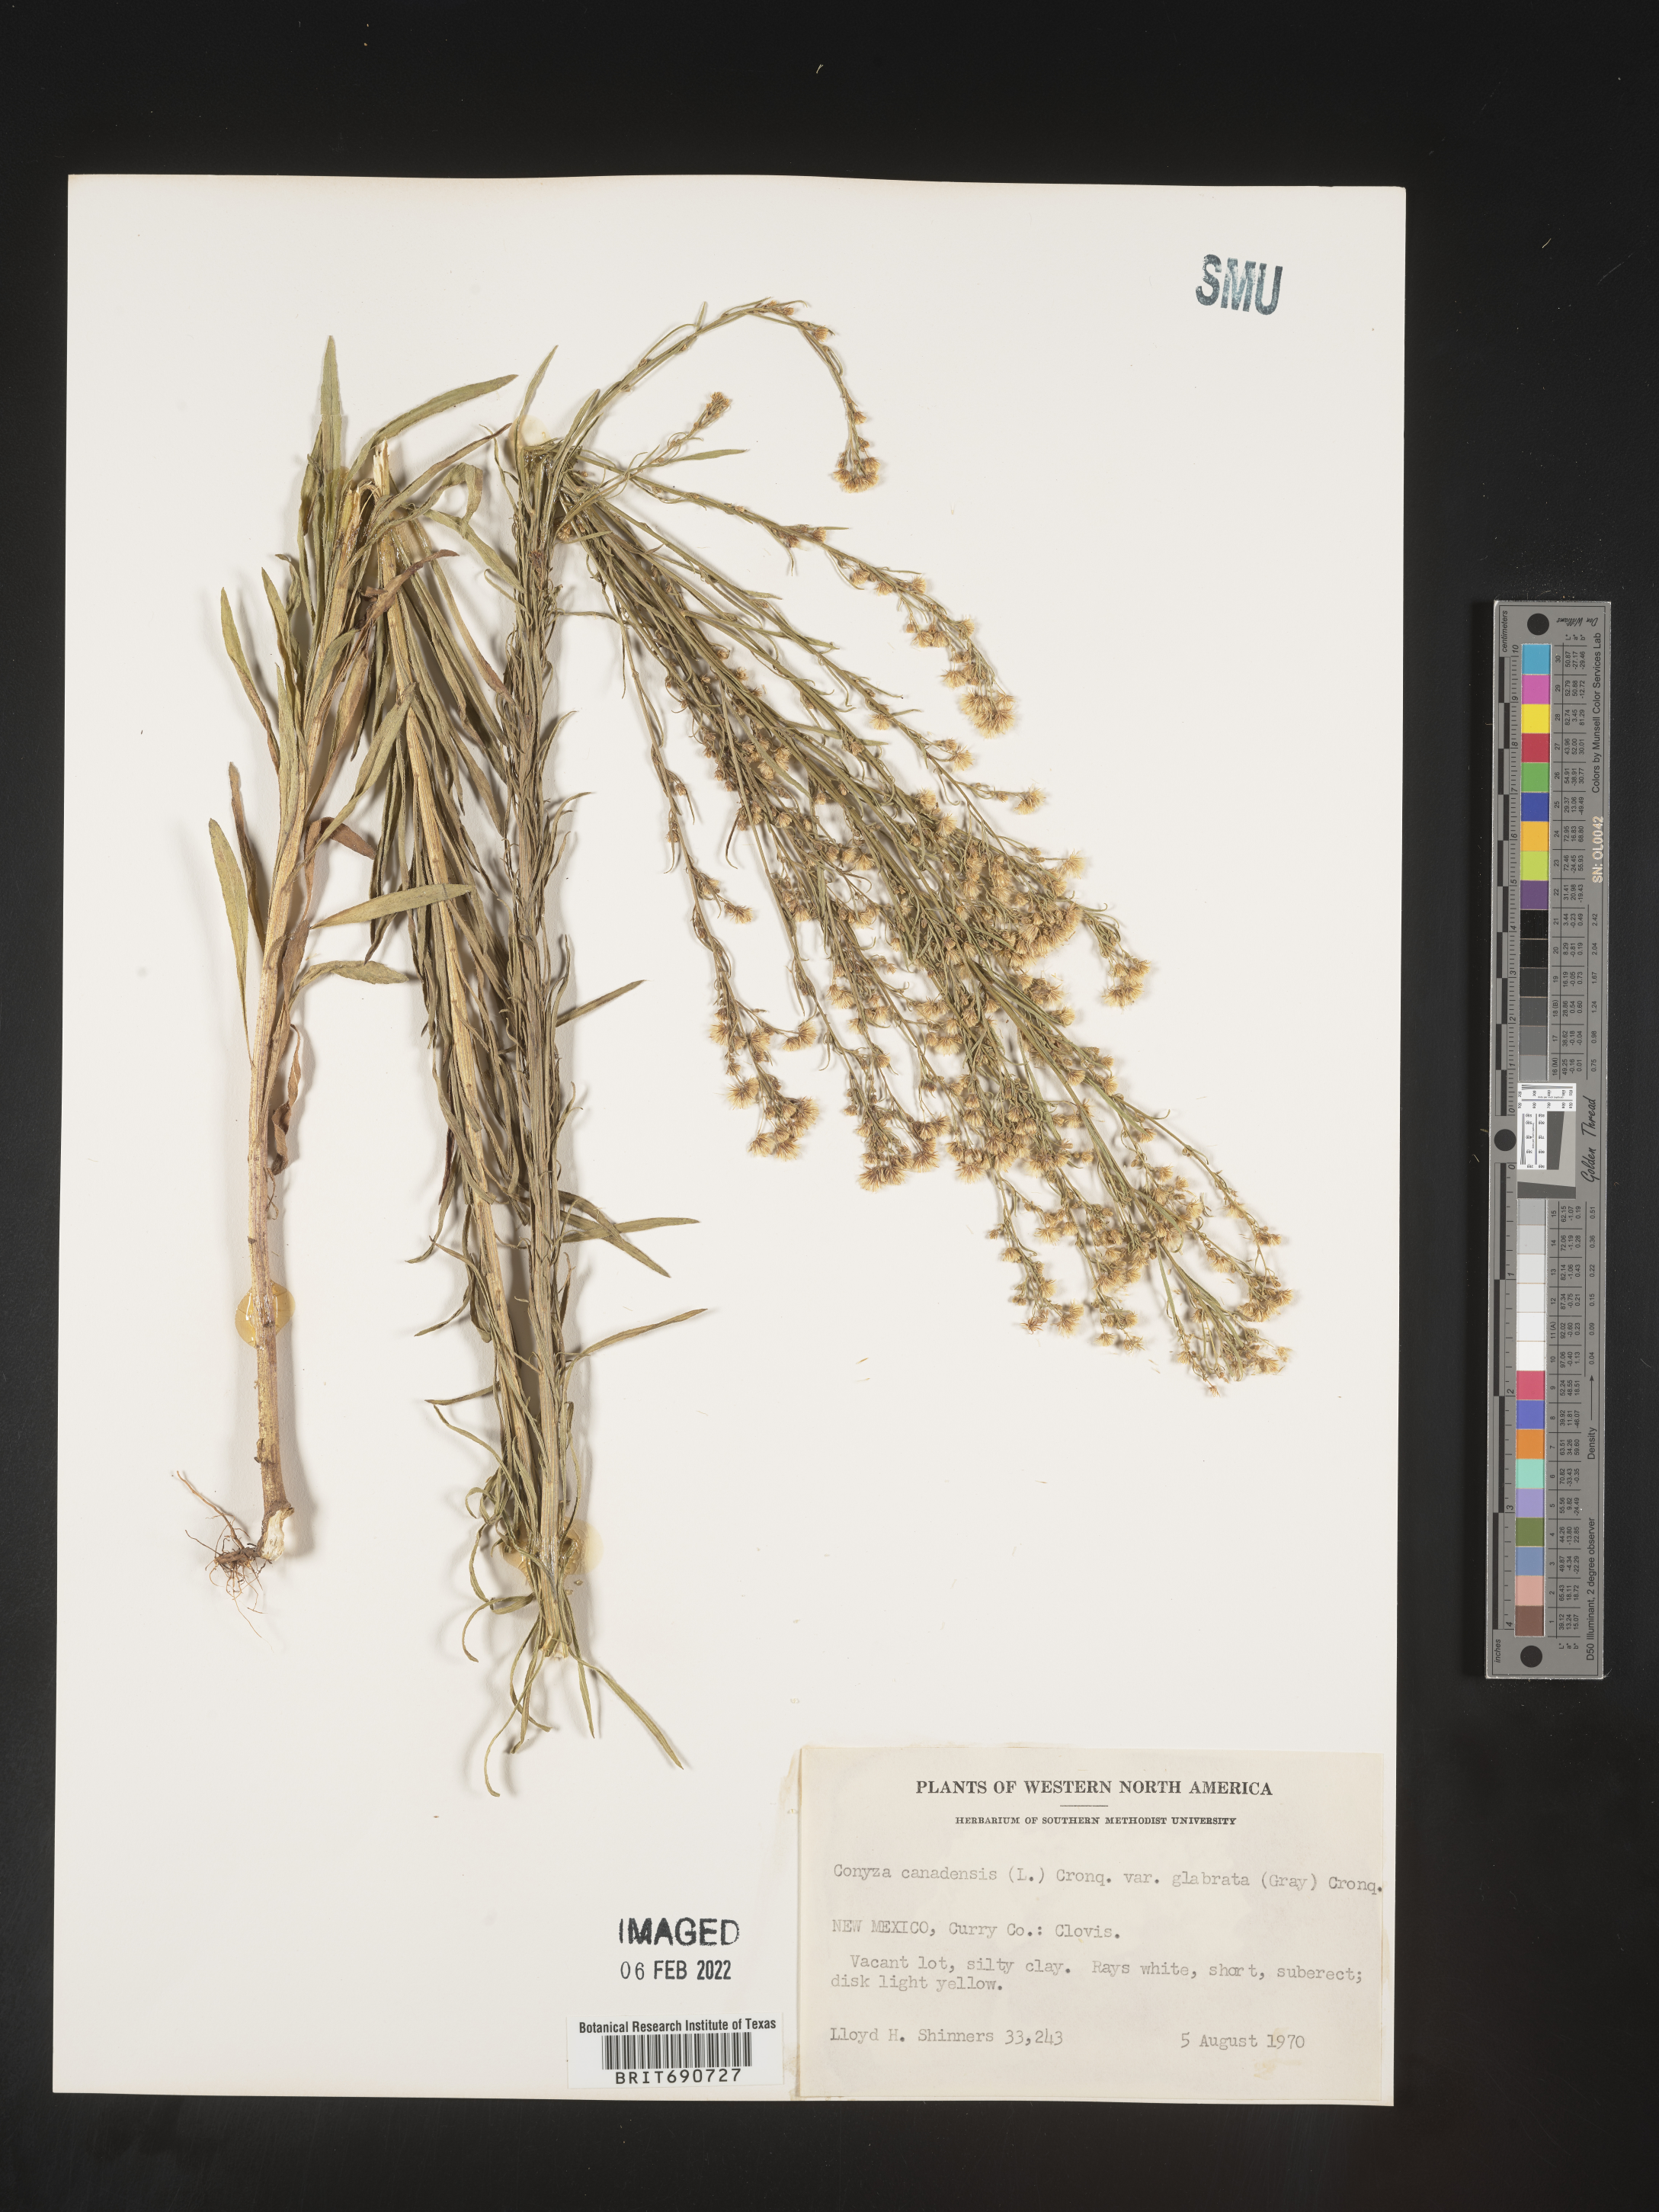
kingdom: Plantae
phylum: Tracheophyta
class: Magnoliopsida
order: Asterales
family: Asteraceae
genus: Erigeron
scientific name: Erigeron canadensis
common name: Canadian fleabane
